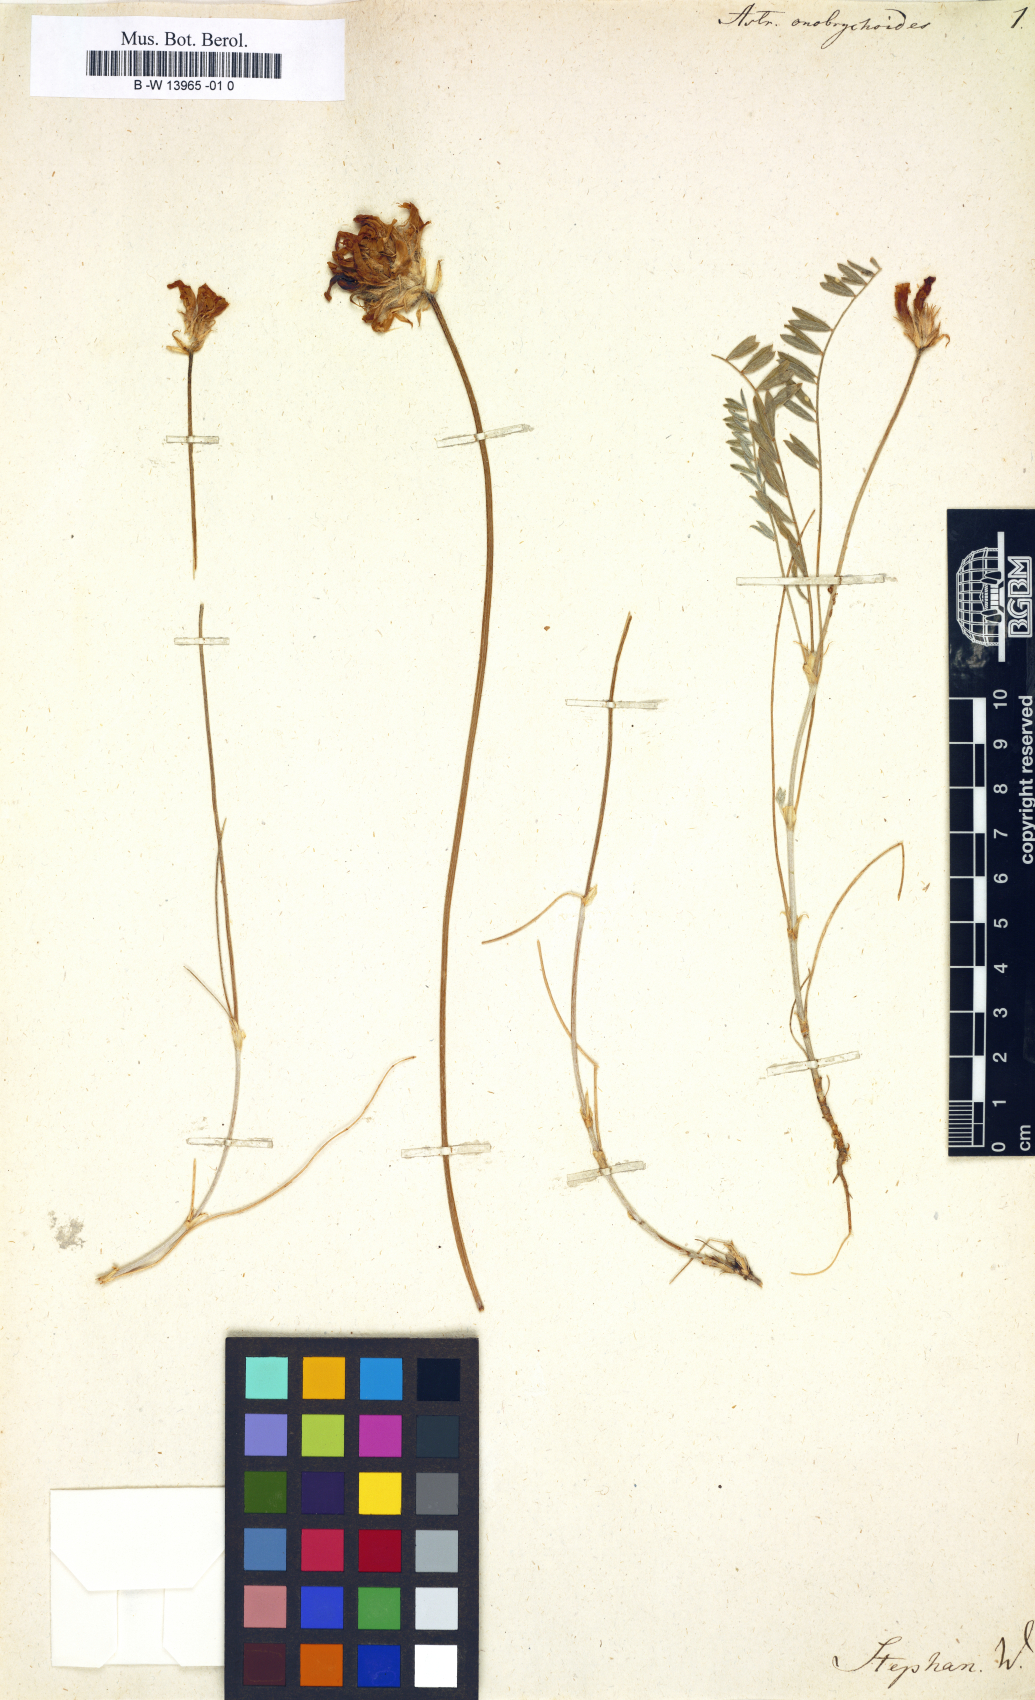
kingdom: Plantae
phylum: Tracheophyta
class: Magnoliopsida
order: Fabales
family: Fabaceae
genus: Astragalus
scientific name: Astragalus onobrychioides
